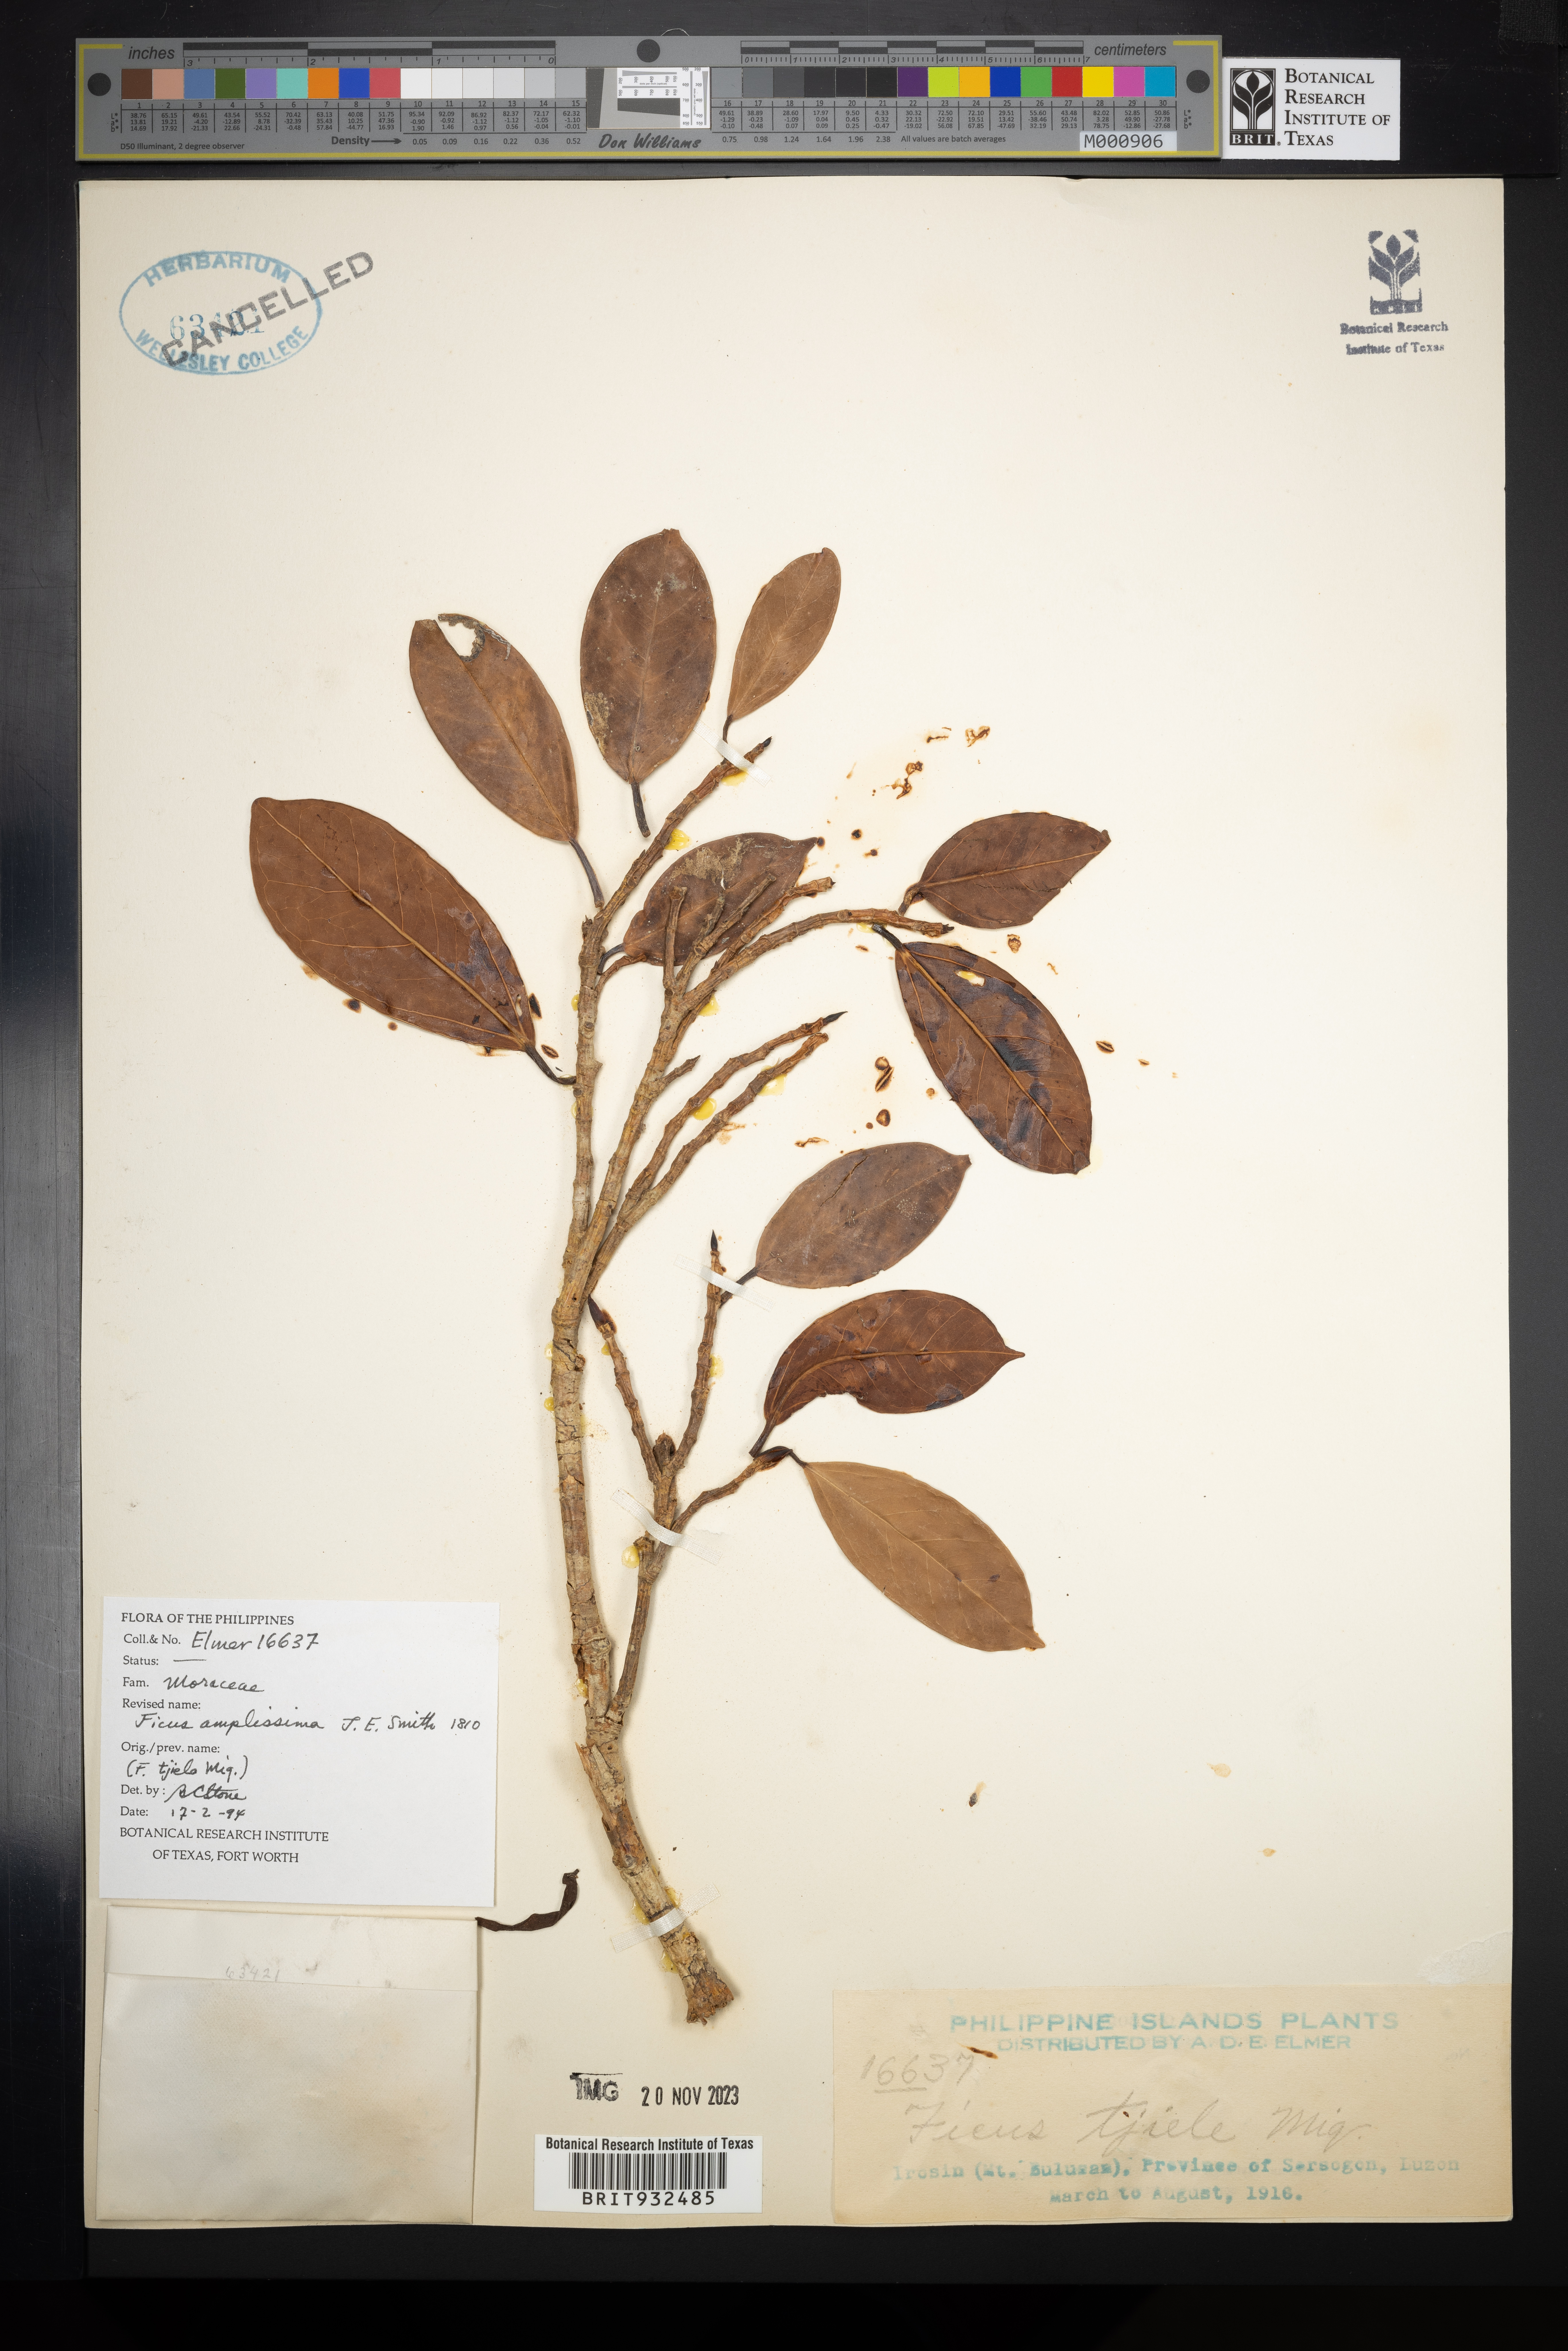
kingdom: Plantae
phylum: Tracheophyta
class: Magnoliopsida
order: Rosales
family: Moraceae
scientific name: Moraceae
